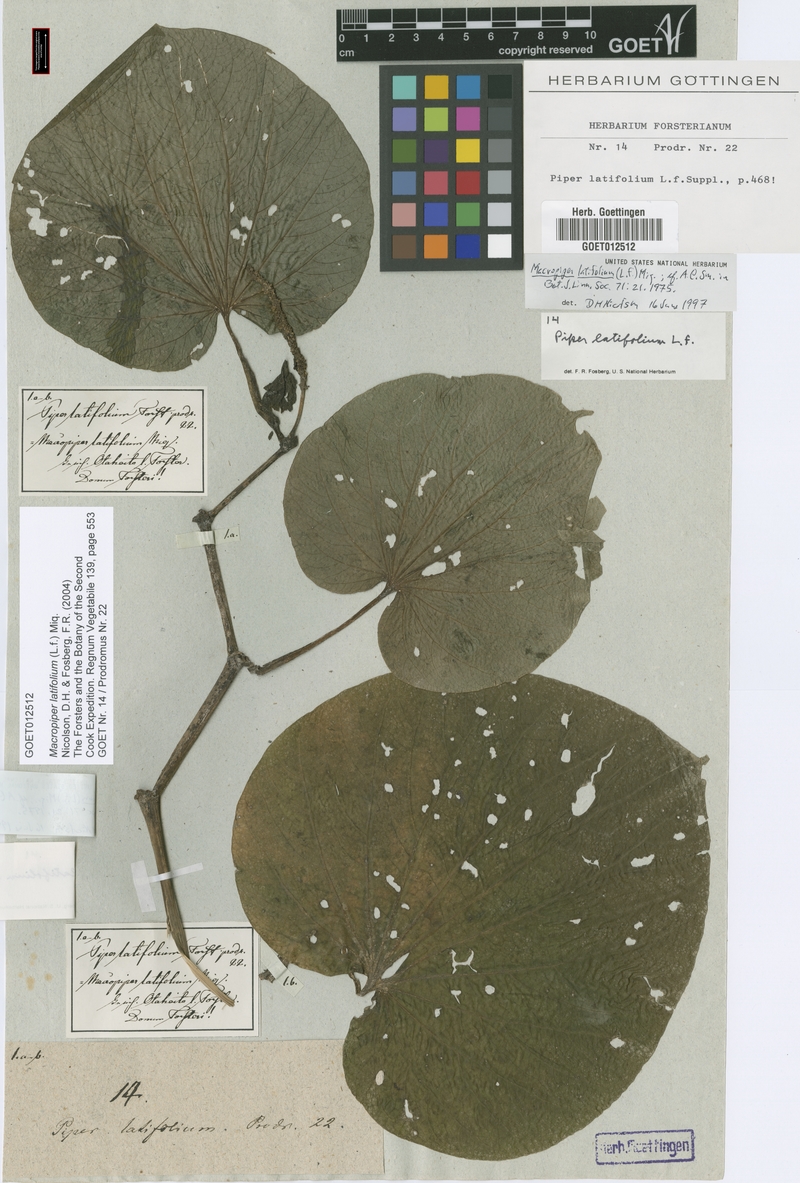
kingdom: Plantae
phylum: Tracheophyta
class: Magnoliopsida
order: Piperales
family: Piperaceae
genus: Macropiper
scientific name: Macropiper latifolium
